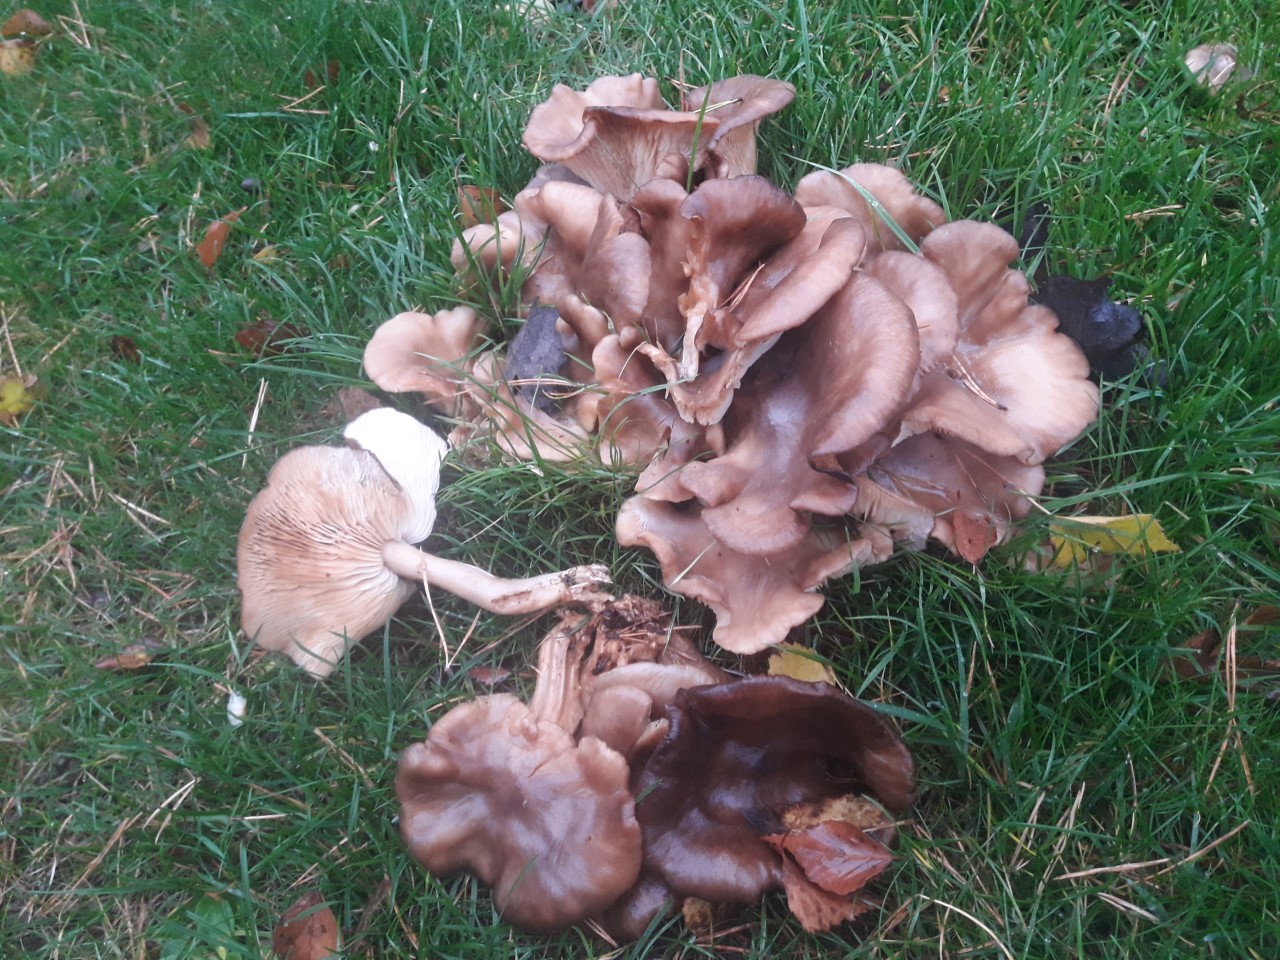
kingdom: Fungi
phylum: Basidiomycota
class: Agaricomycetes
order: Agaricales
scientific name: Agaricales
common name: champignonordenen
